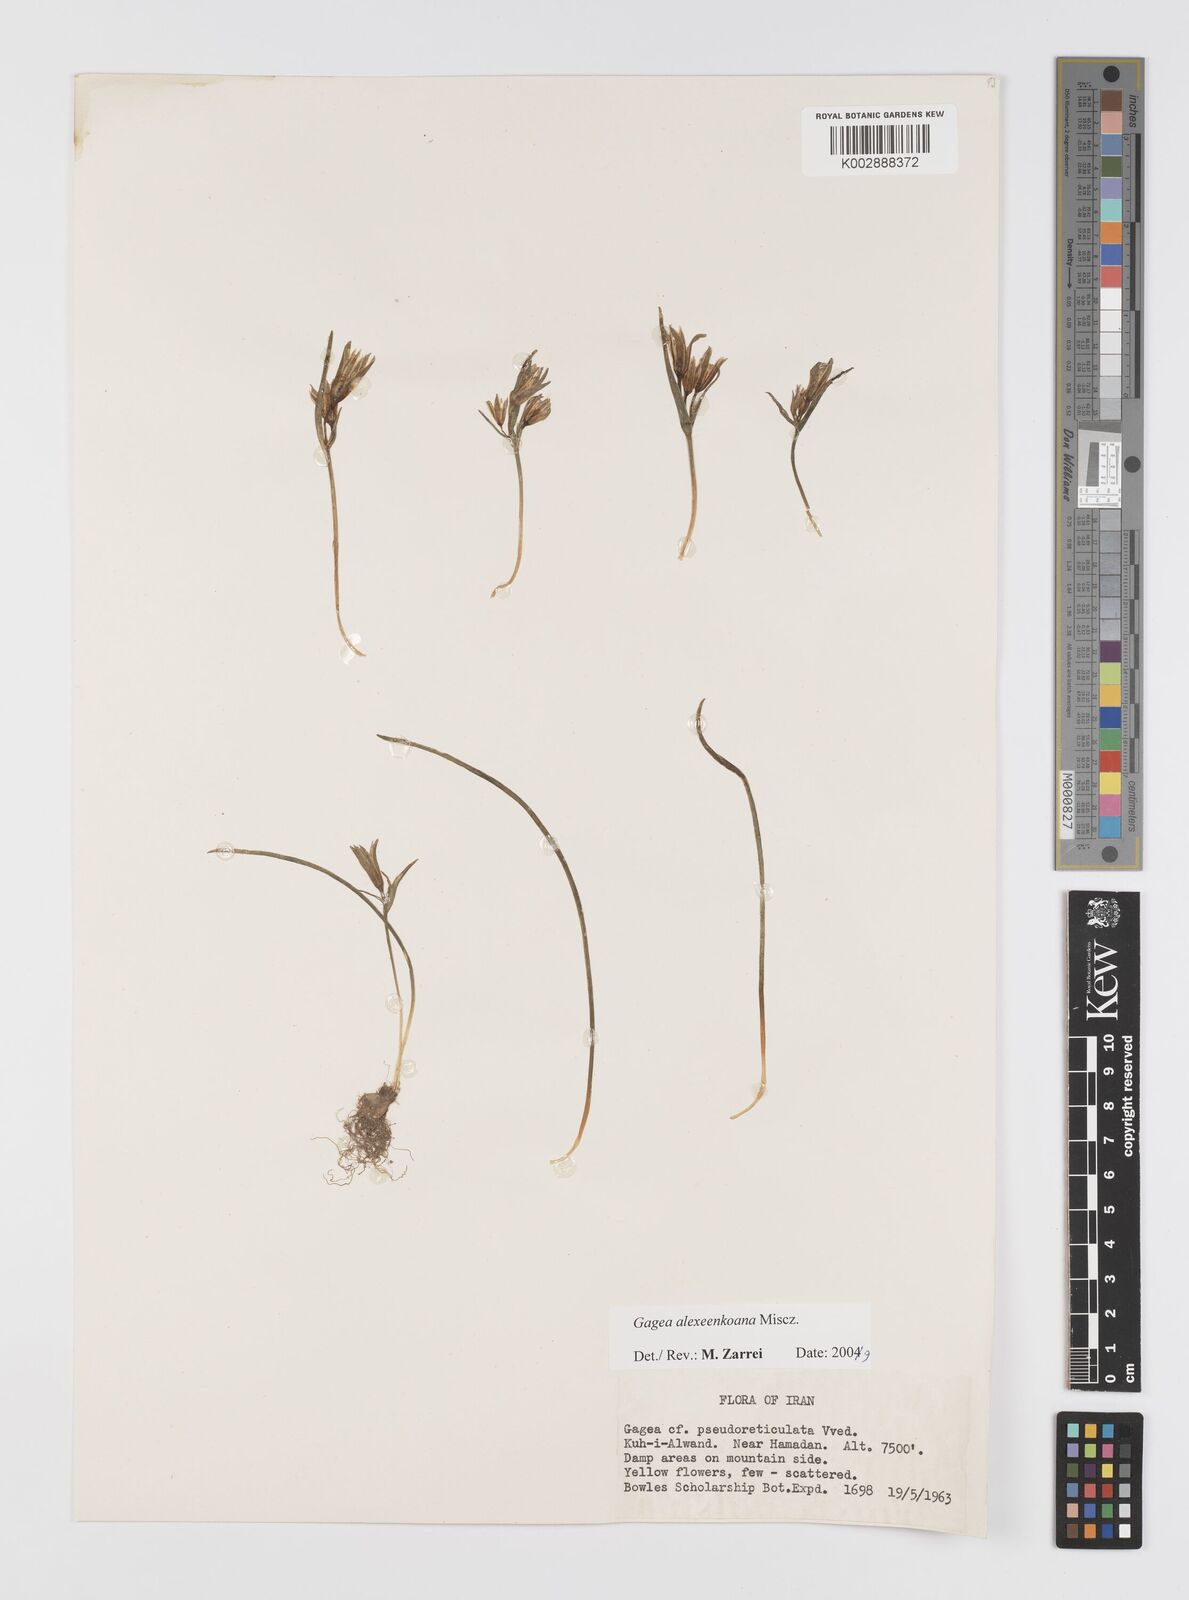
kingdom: Plantae
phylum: Tracheophyta
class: Liliopsida
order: Liliales
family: Liliaceae
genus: Gagea
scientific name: Gagea alexeenkoana
